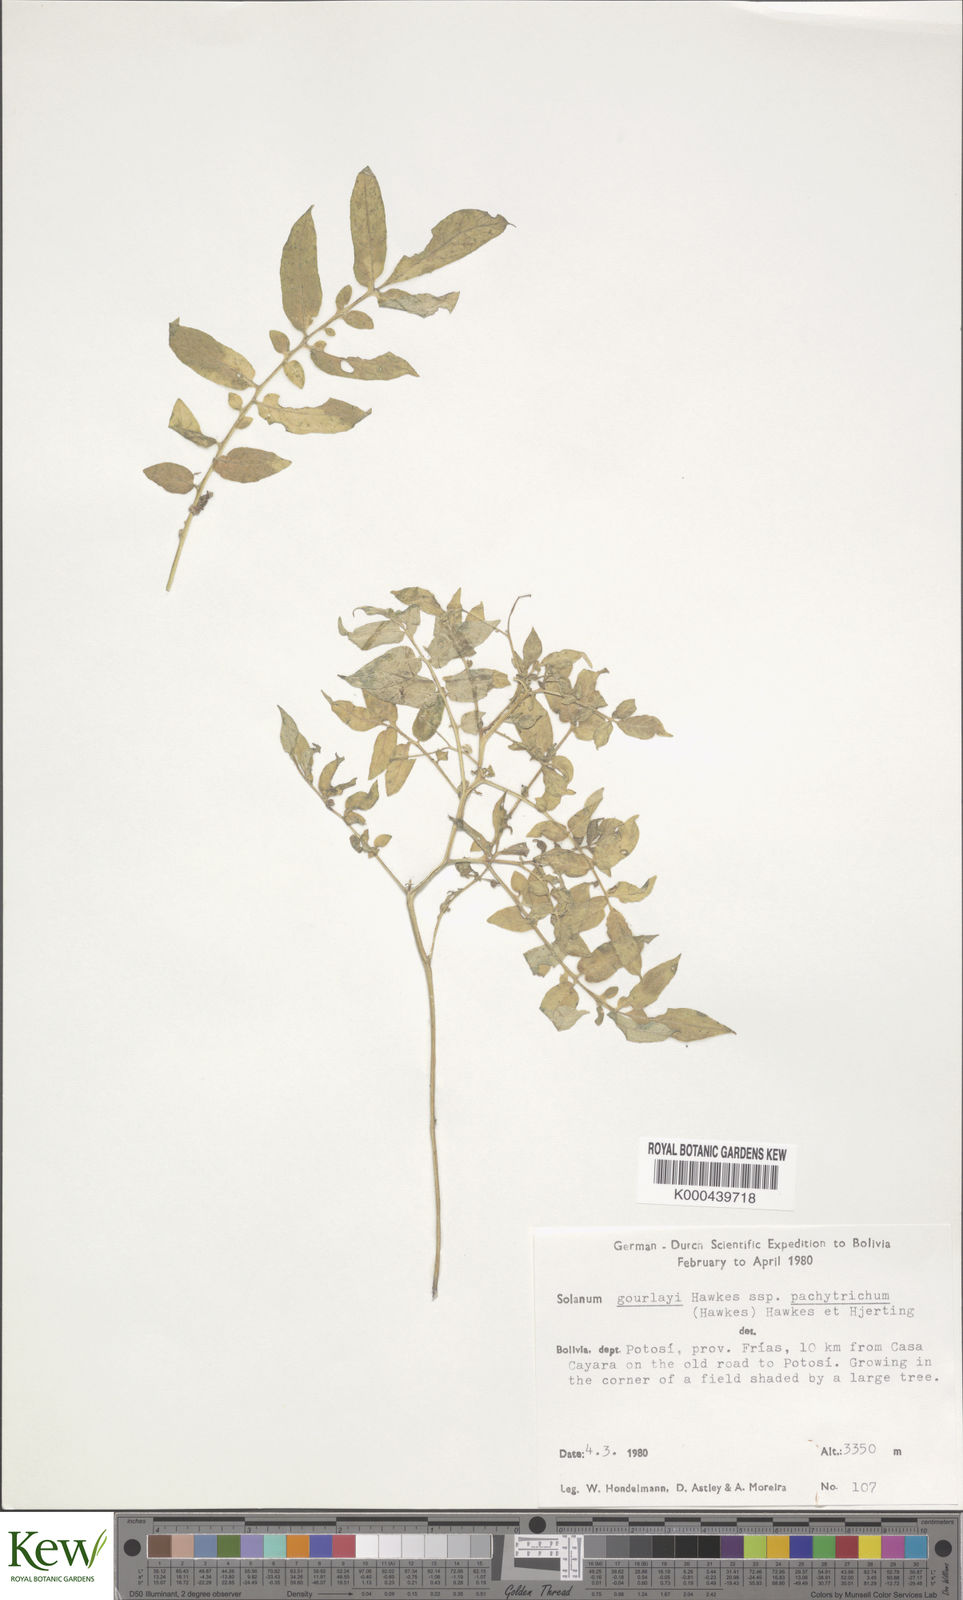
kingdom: Plantae
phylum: Tracheophyta
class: Magnoliopsida
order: Solanales
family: Solanaceae
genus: Solanum
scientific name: Solanum brevicaule
